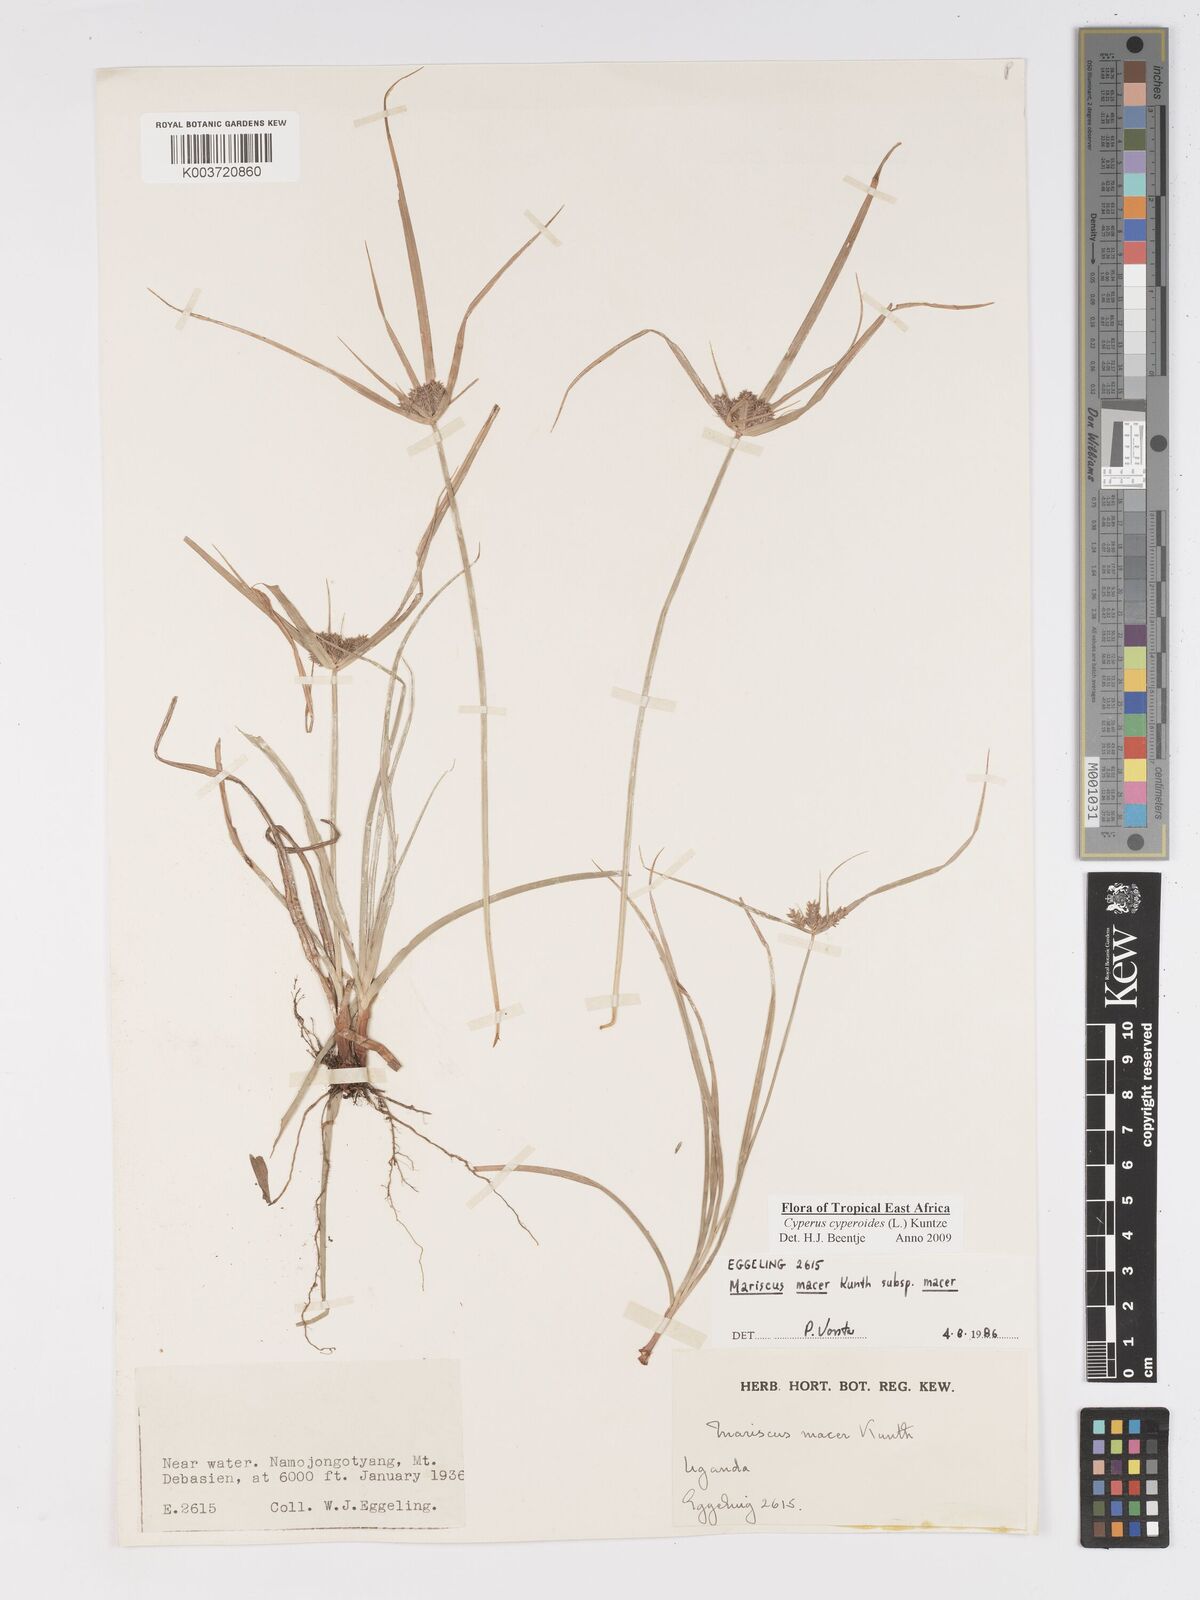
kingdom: Plantae
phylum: Tracheophyta
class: Liliopsida
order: Poales
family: Cyperaceae
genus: Cyperus
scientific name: Cyperus pseudoflavus
